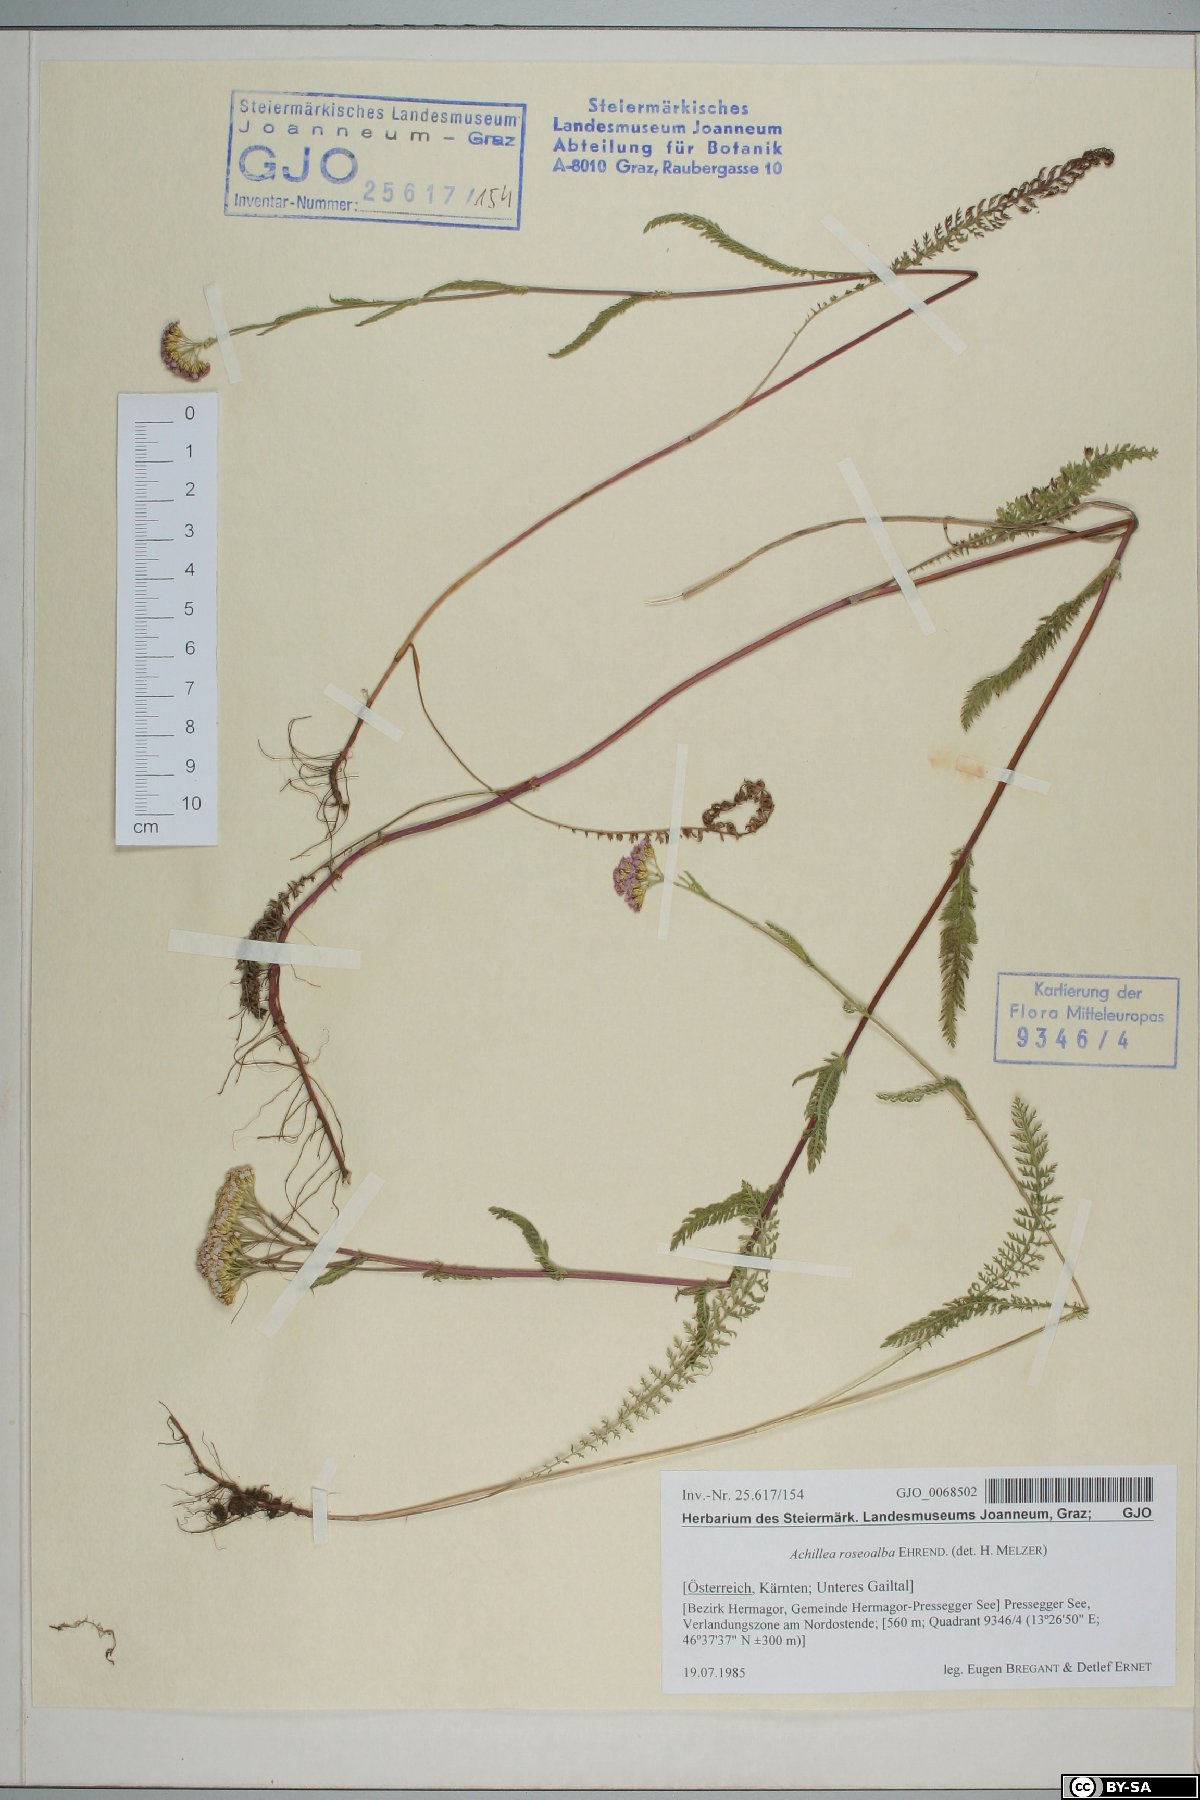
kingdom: Plantae
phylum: Tracheophyta
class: Magnoliopsida
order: Asterales
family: Asteraceae
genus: Achillea
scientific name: Achillea roseoalba
